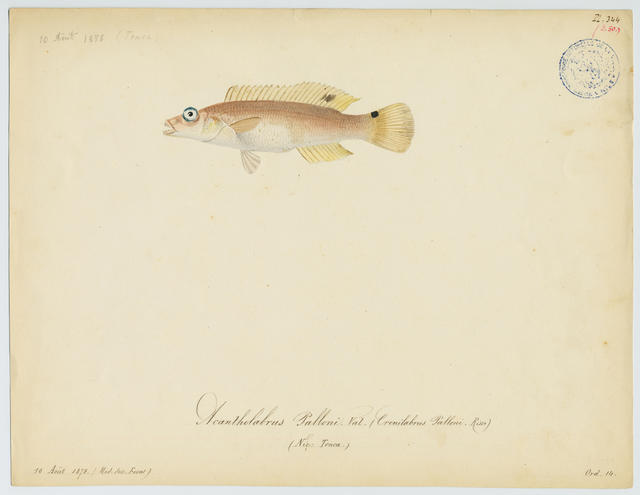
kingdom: Animalia
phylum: Chordata
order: Perciformes
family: Labridae
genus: Acantholabrus
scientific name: Acantholabrus palloni
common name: Scale-rayed wrasse
